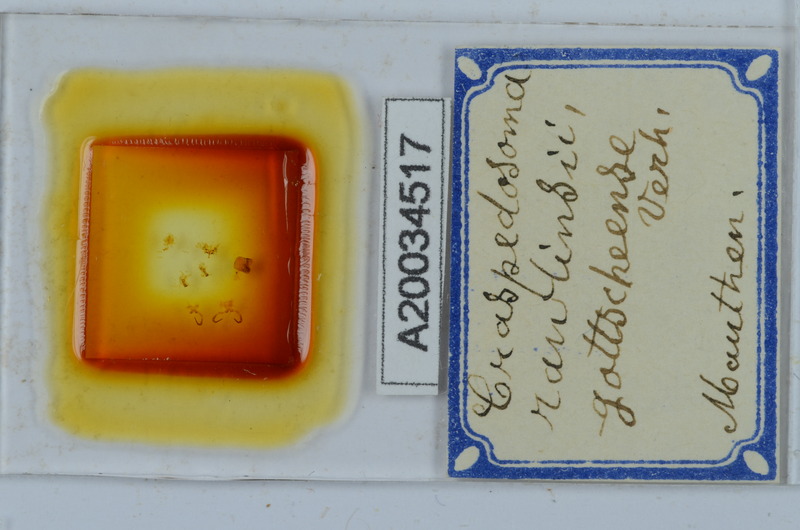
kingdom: Animalia
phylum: Arthropoda
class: Diplopoda
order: Chordeumatida
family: Craspedosomatidae
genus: Craspedosoma
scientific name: Craspedosoma slavum
